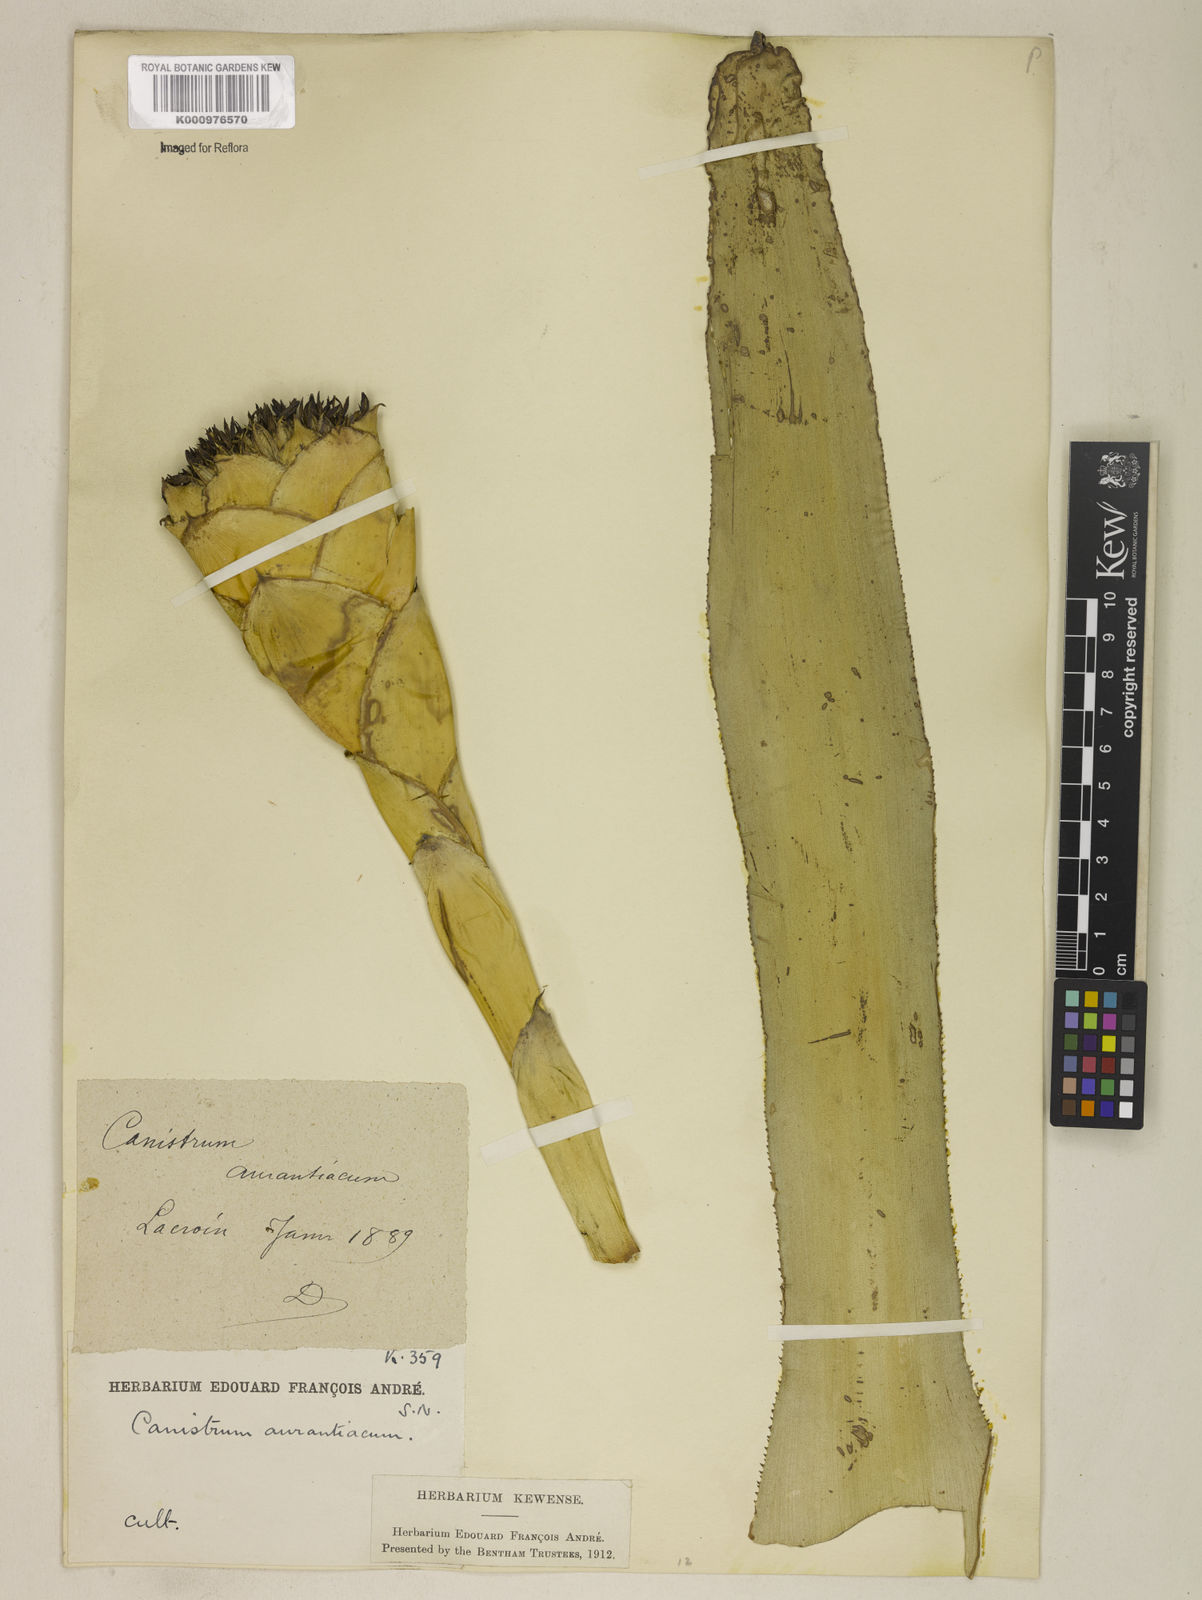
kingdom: Plantae
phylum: Tracheophyta
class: Liliopsida
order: Poales
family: Bromeliaceae
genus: Canistrum
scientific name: Canistrum aurantiacum
